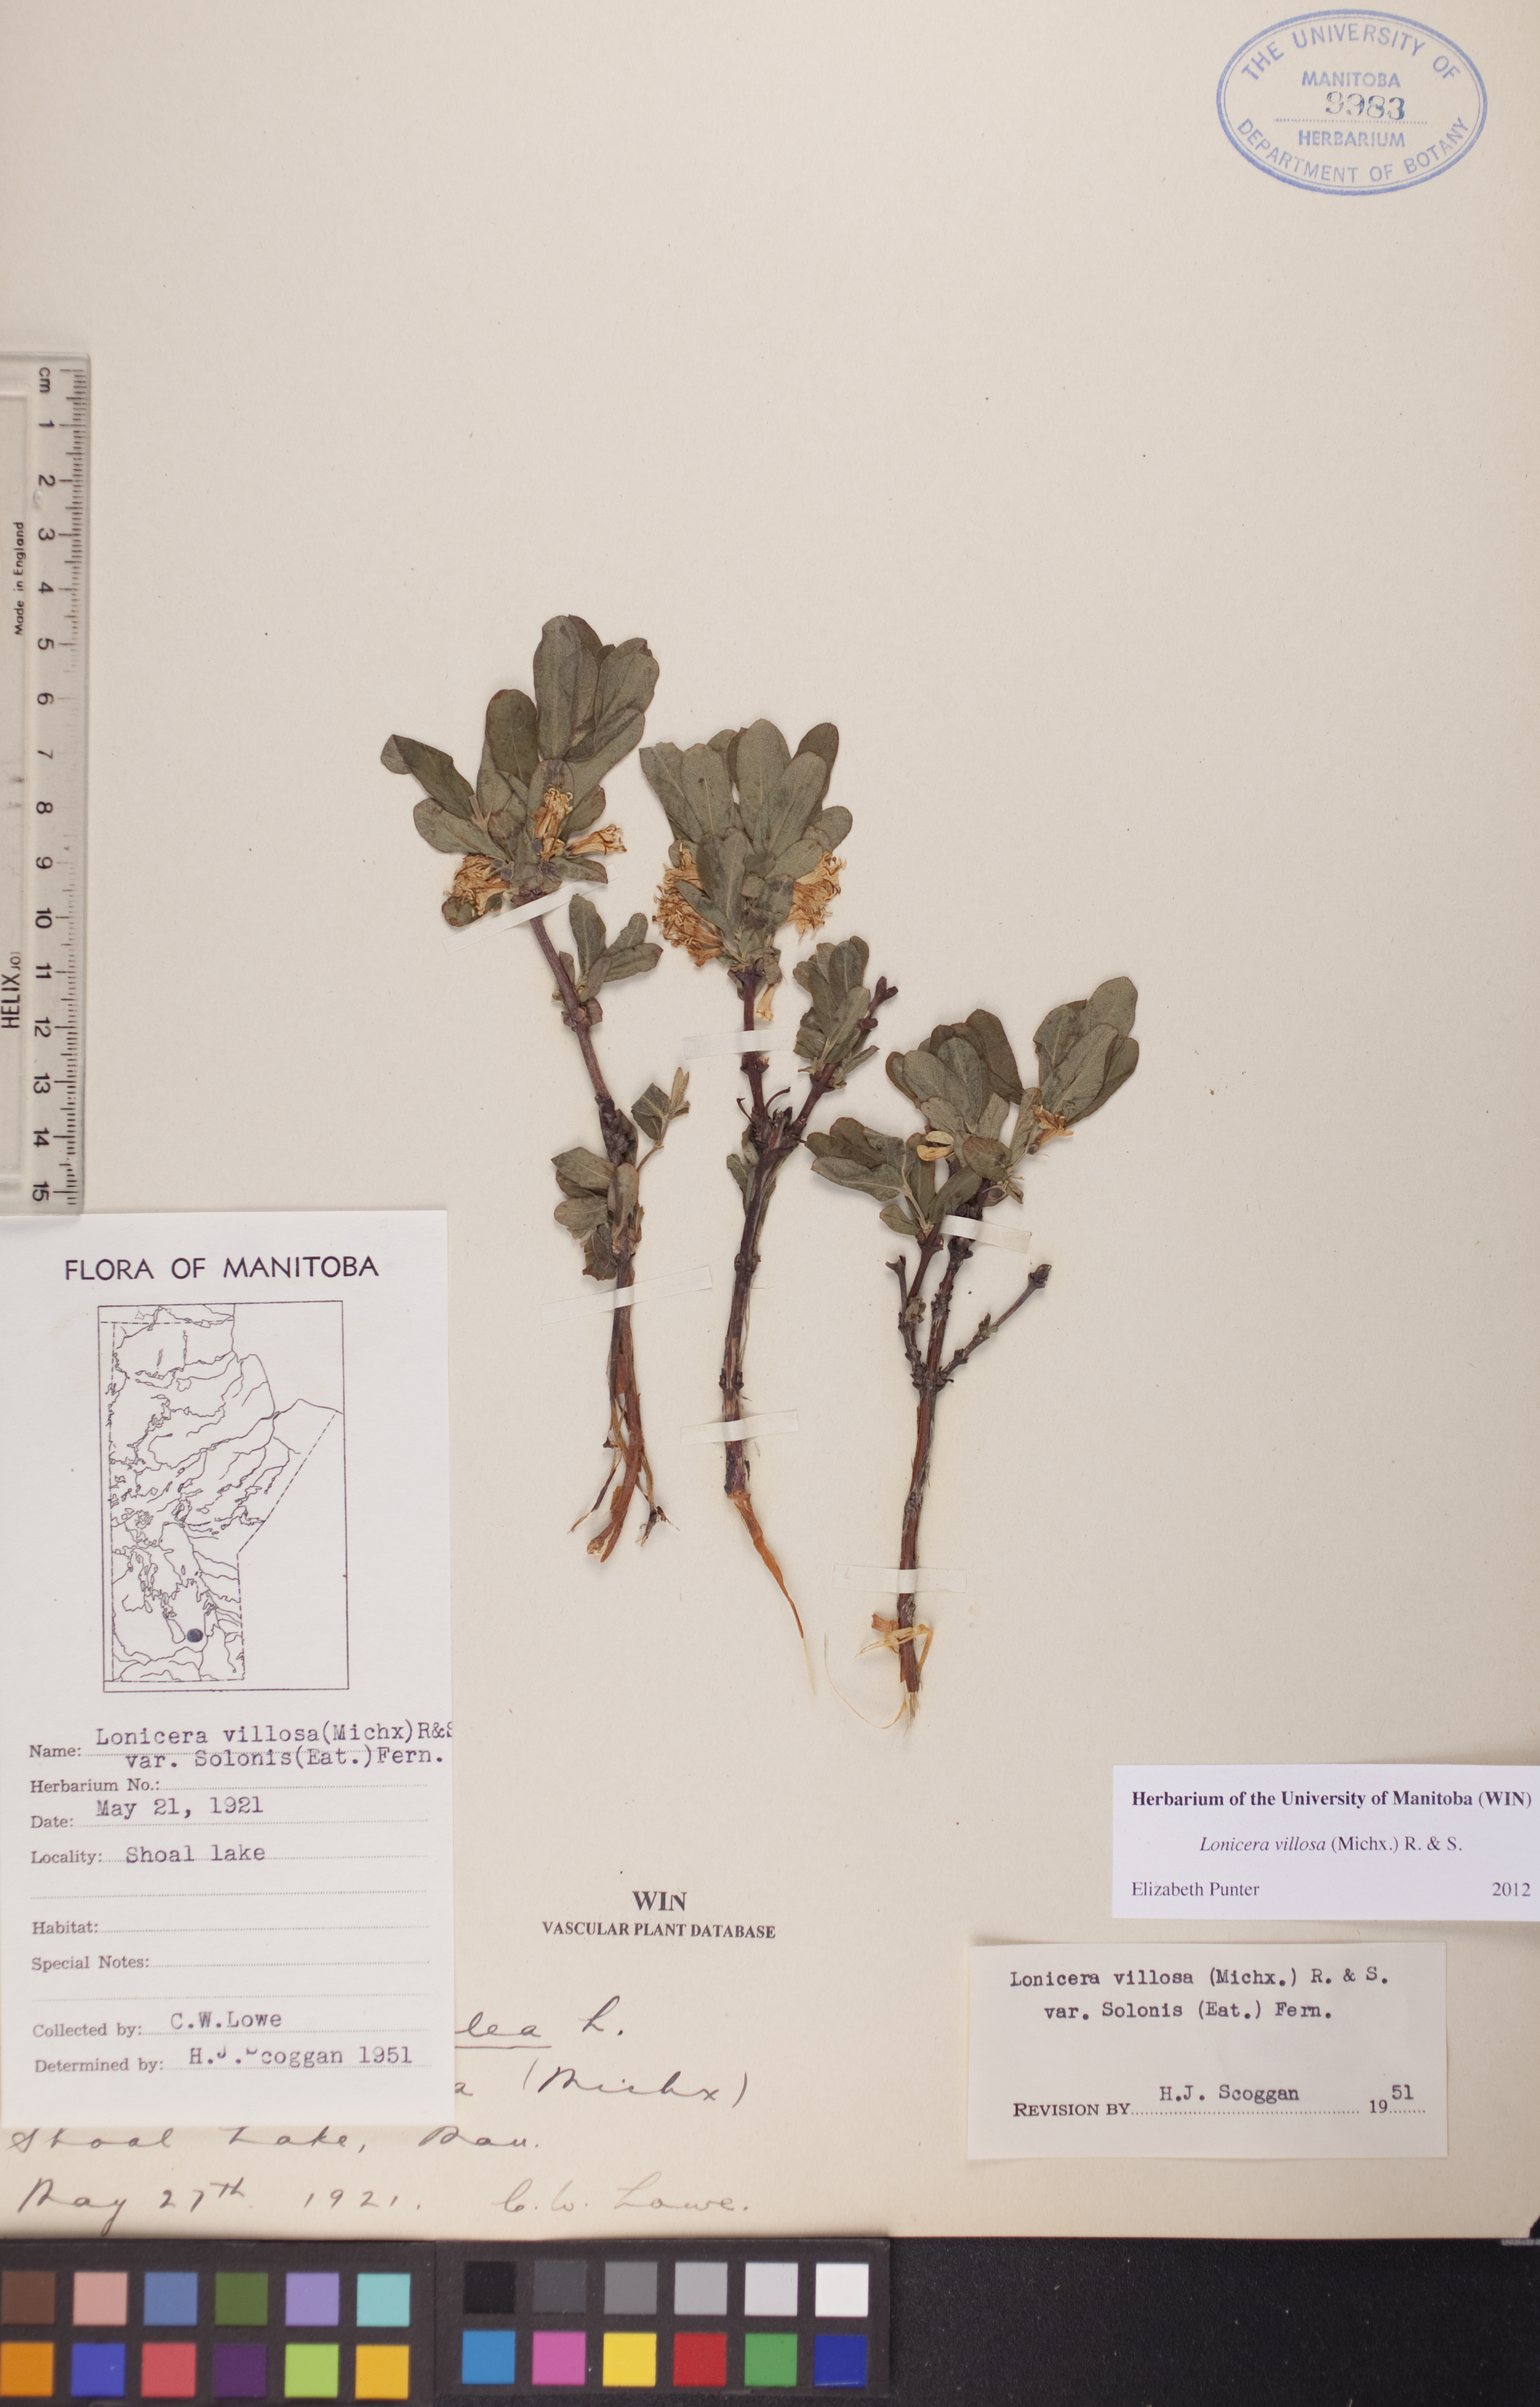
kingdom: Plantae
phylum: Tracheophyta
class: Magnoliopsida
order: Dipsacales
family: Caprifoliaceae
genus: Lonicera
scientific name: Lonicera villosa
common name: Mountain fly-honeysuckle
